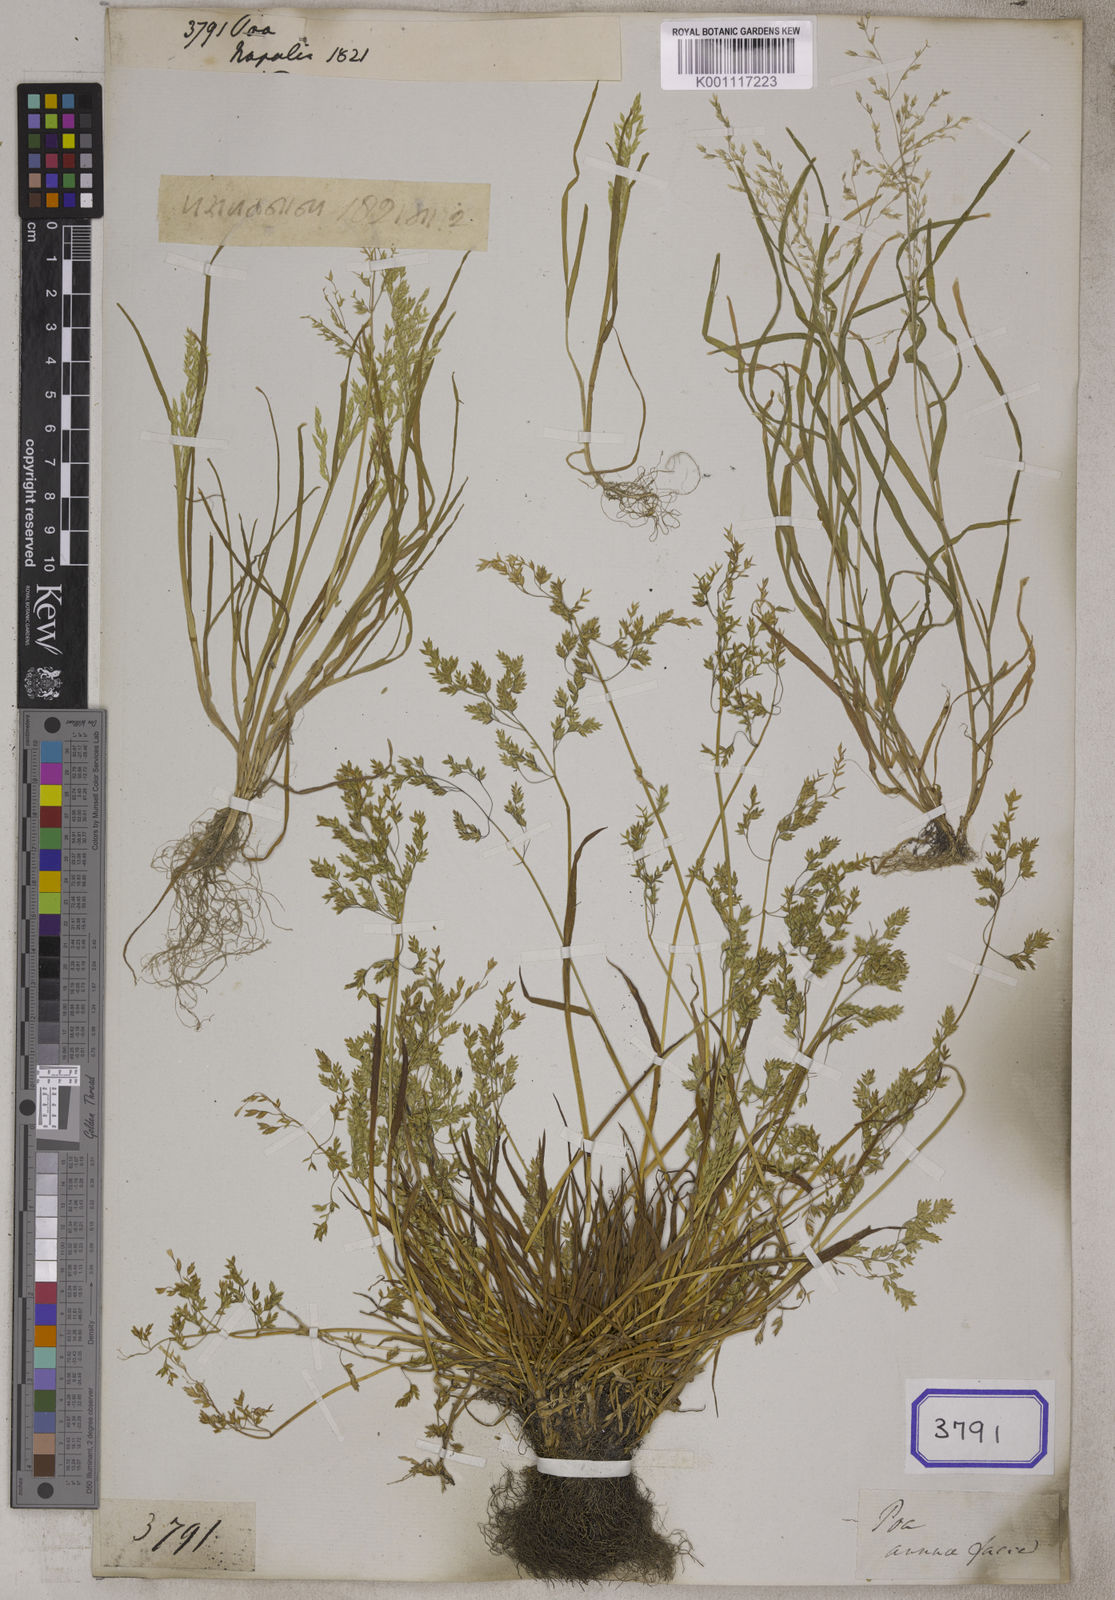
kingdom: Plantae
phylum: Tracheophyta
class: Liliopsida
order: Poales
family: Poaceae
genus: Poa
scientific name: Poa
